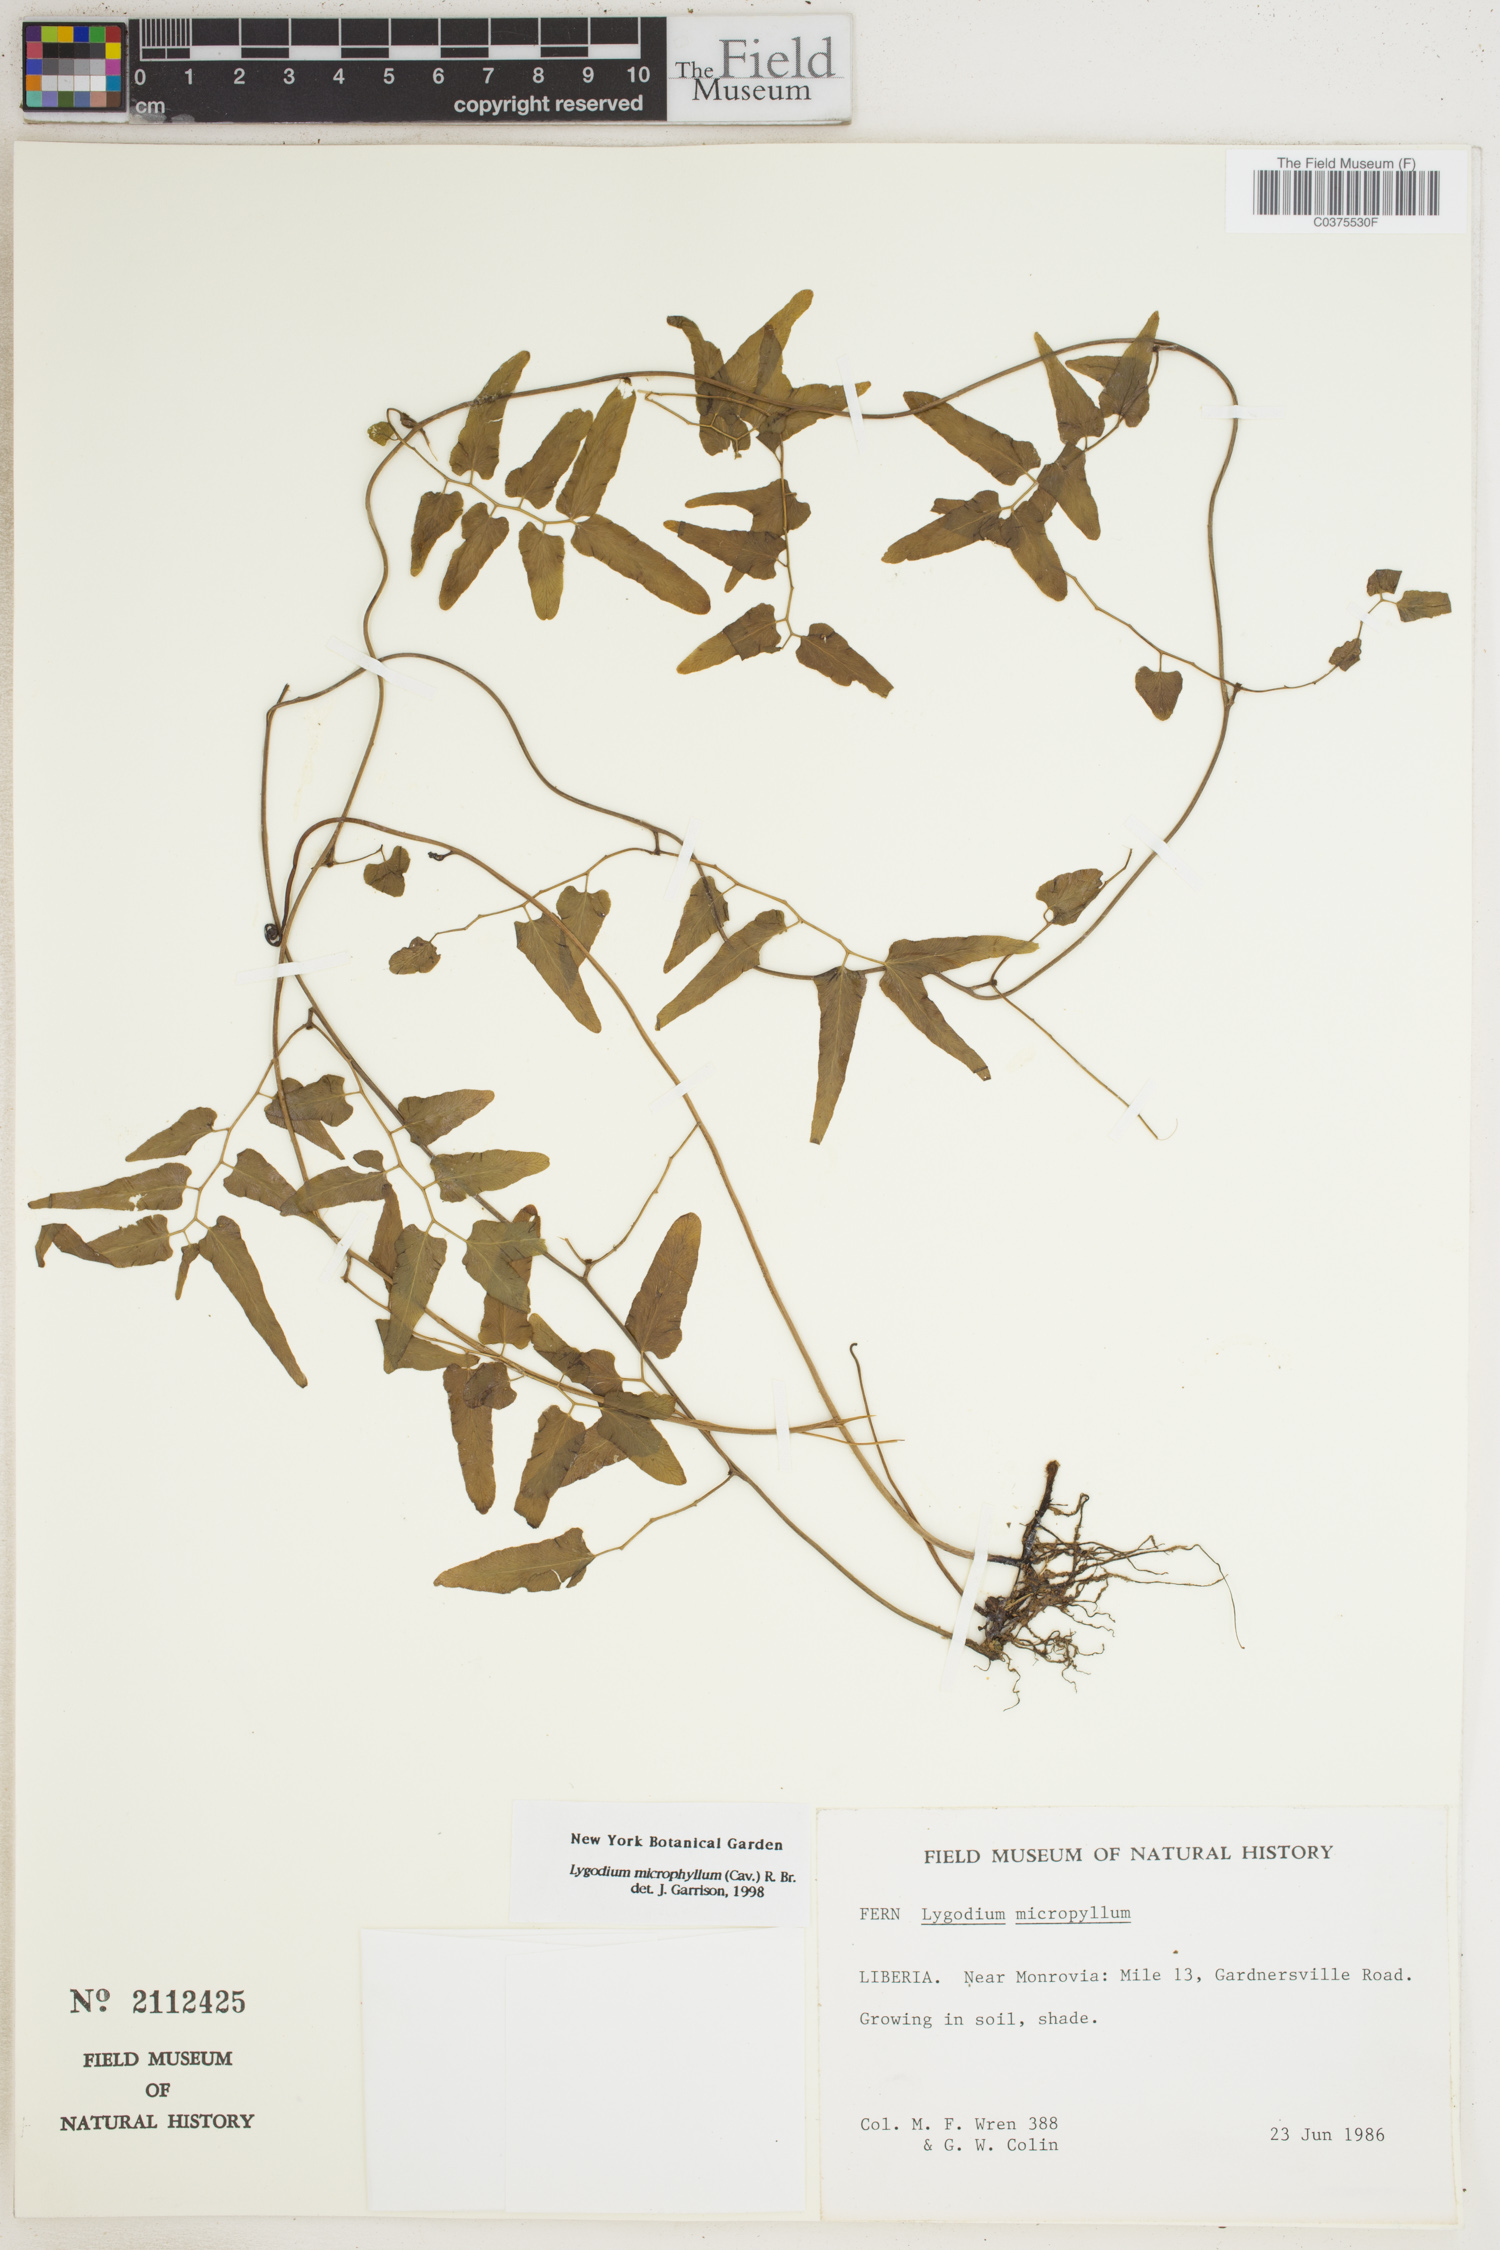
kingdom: Plantae
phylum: Tracheophyta
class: Polypodiopsida
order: Schizaeales
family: Lygodiaceae
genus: Lygodium
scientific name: Lygodium microphyllum
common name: Small-leaf climbing fern
